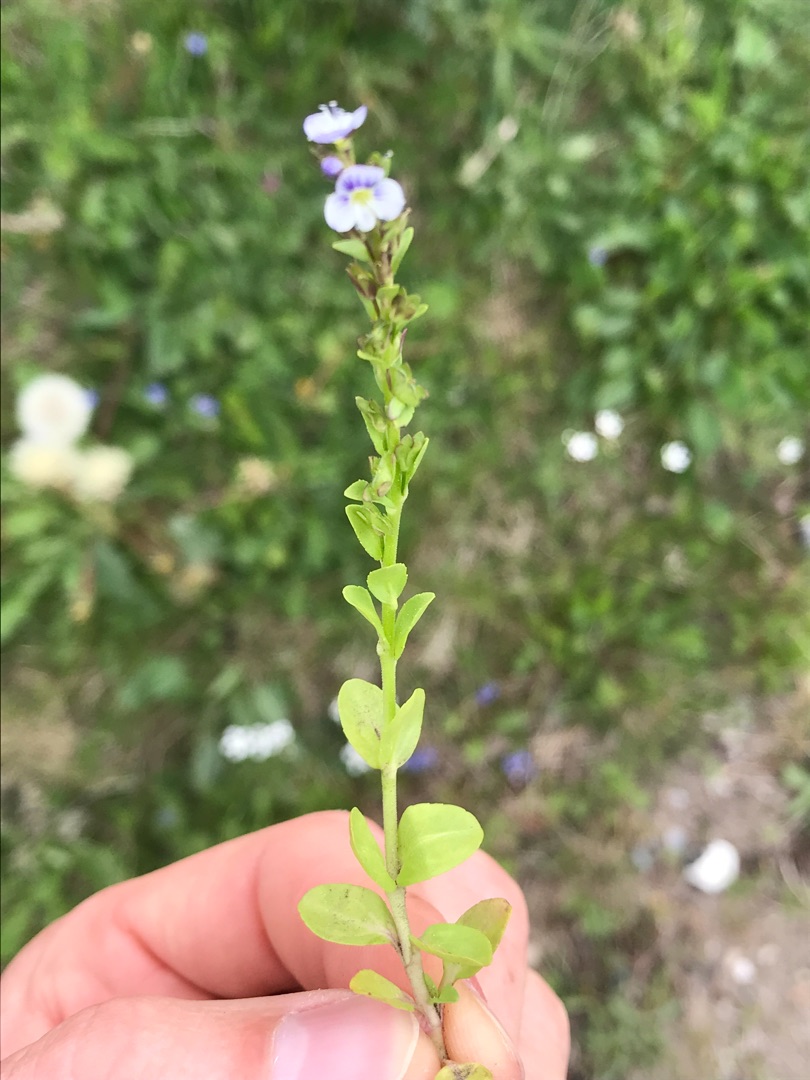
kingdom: Plantae
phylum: Tracheophyta
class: Magnoliopsida
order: Lamiales
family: Plantaginaceae
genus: Veronica
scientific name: Veronica serpyllifolia
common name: Glat ærenpris
